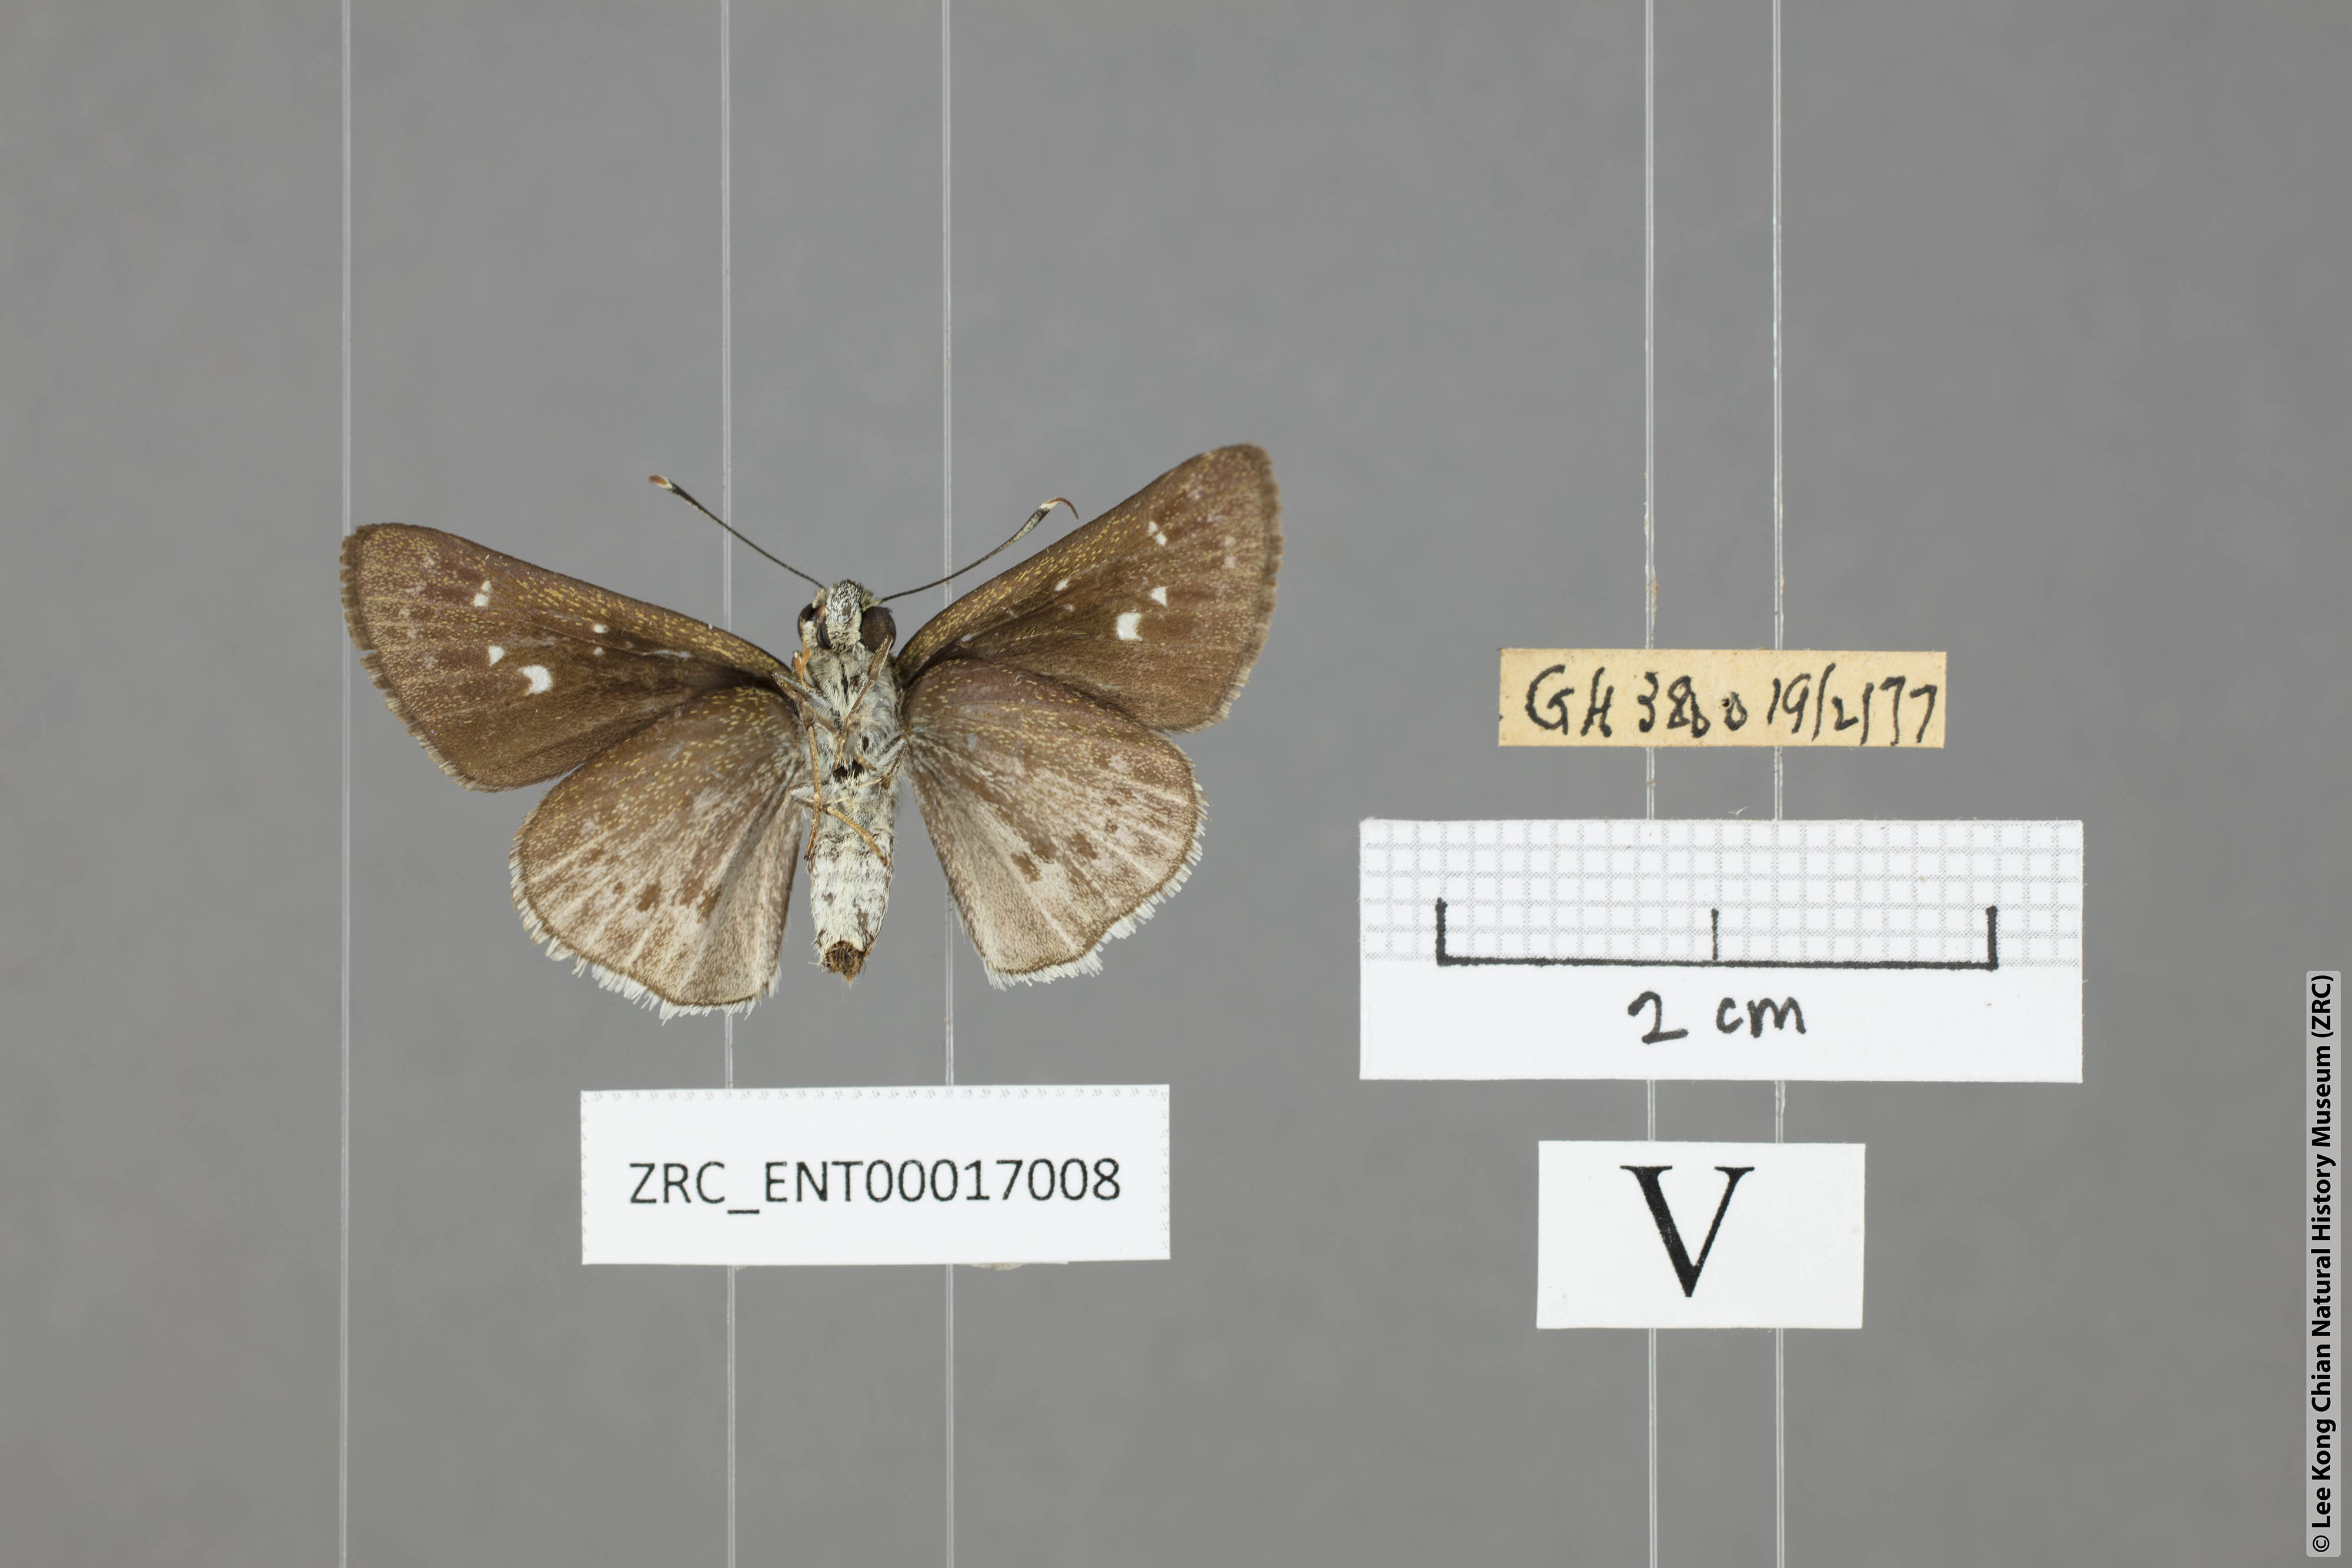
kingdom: Animalia
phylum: Arthropoda
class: Insecta
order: Lepidoptera
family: Hesperiidae
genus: Halpe
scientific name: Halpe insignis
